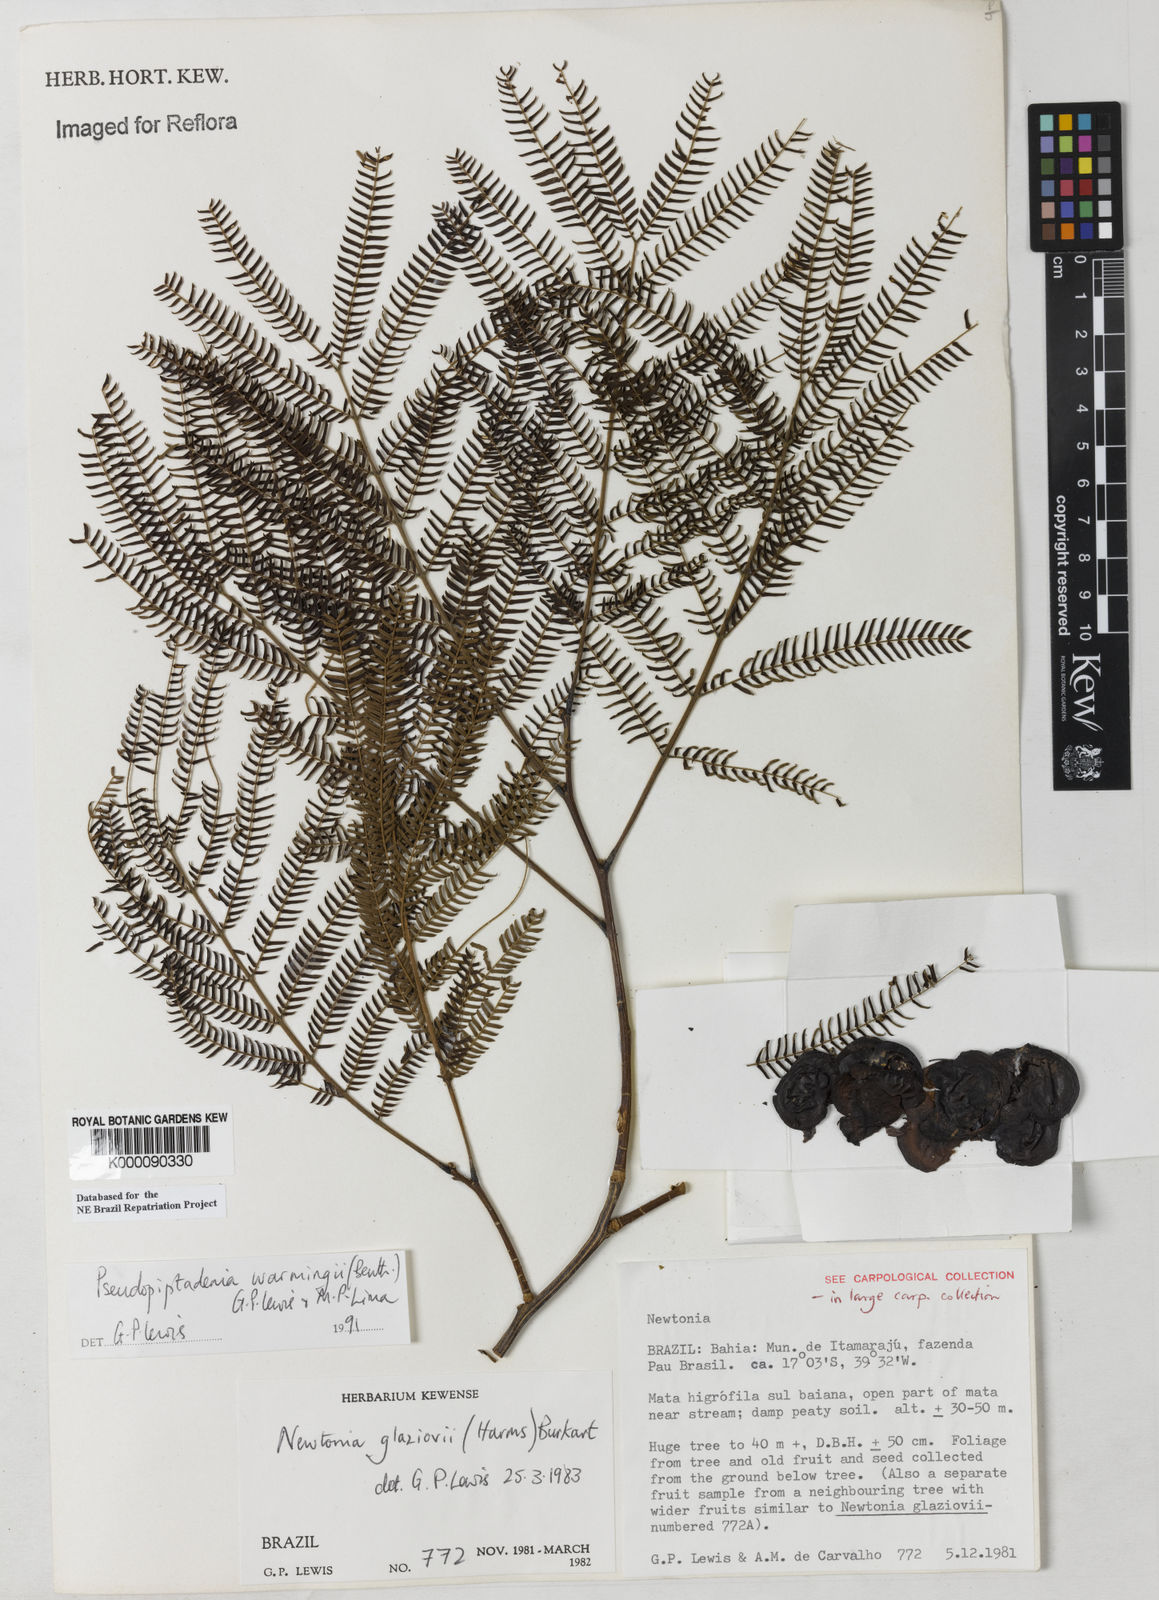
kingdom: Plantae
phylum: Tracheophyta
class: Magnoliopsida
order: Fabales
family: Fabaceae
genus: Pseudopiptadenia
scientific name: Pseudopiptadenia warmingii
